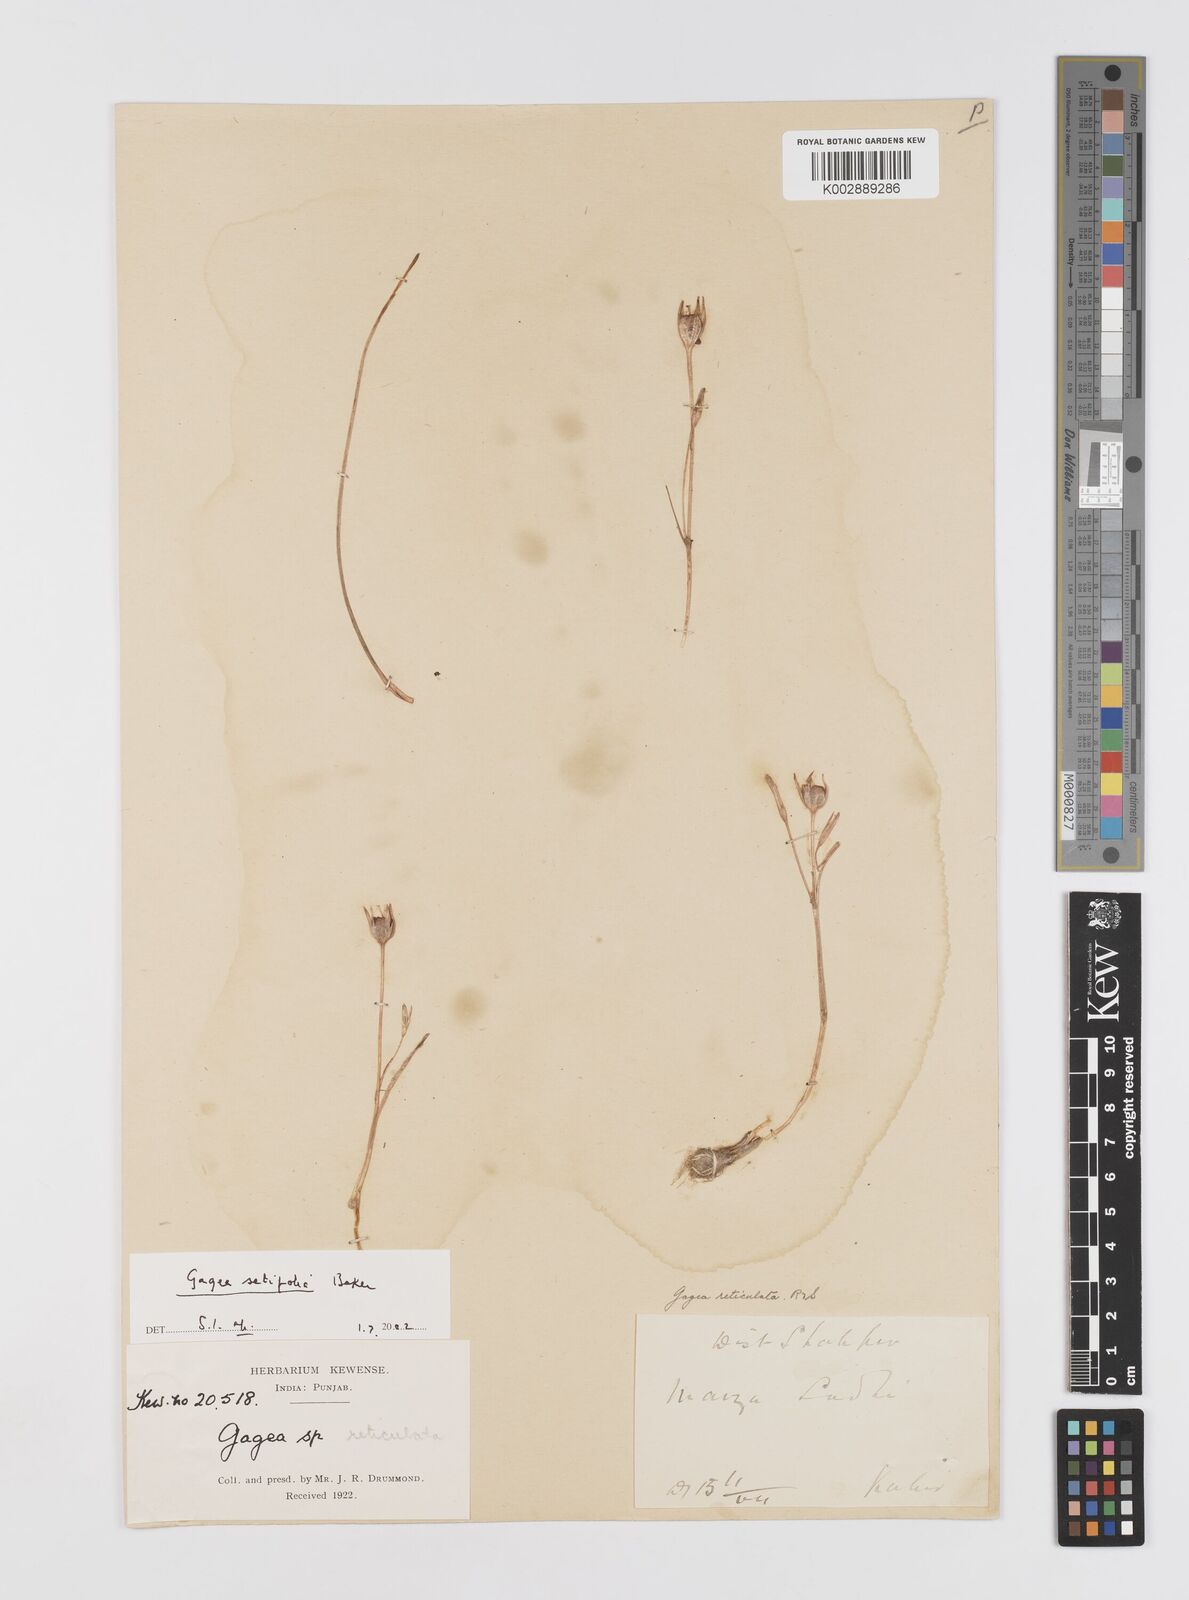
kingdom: Plantae
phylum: Tracheophyta
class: Liliopsida
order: Liliales
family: Liliaceae
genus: Gagea
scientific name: Gagea setifolia
